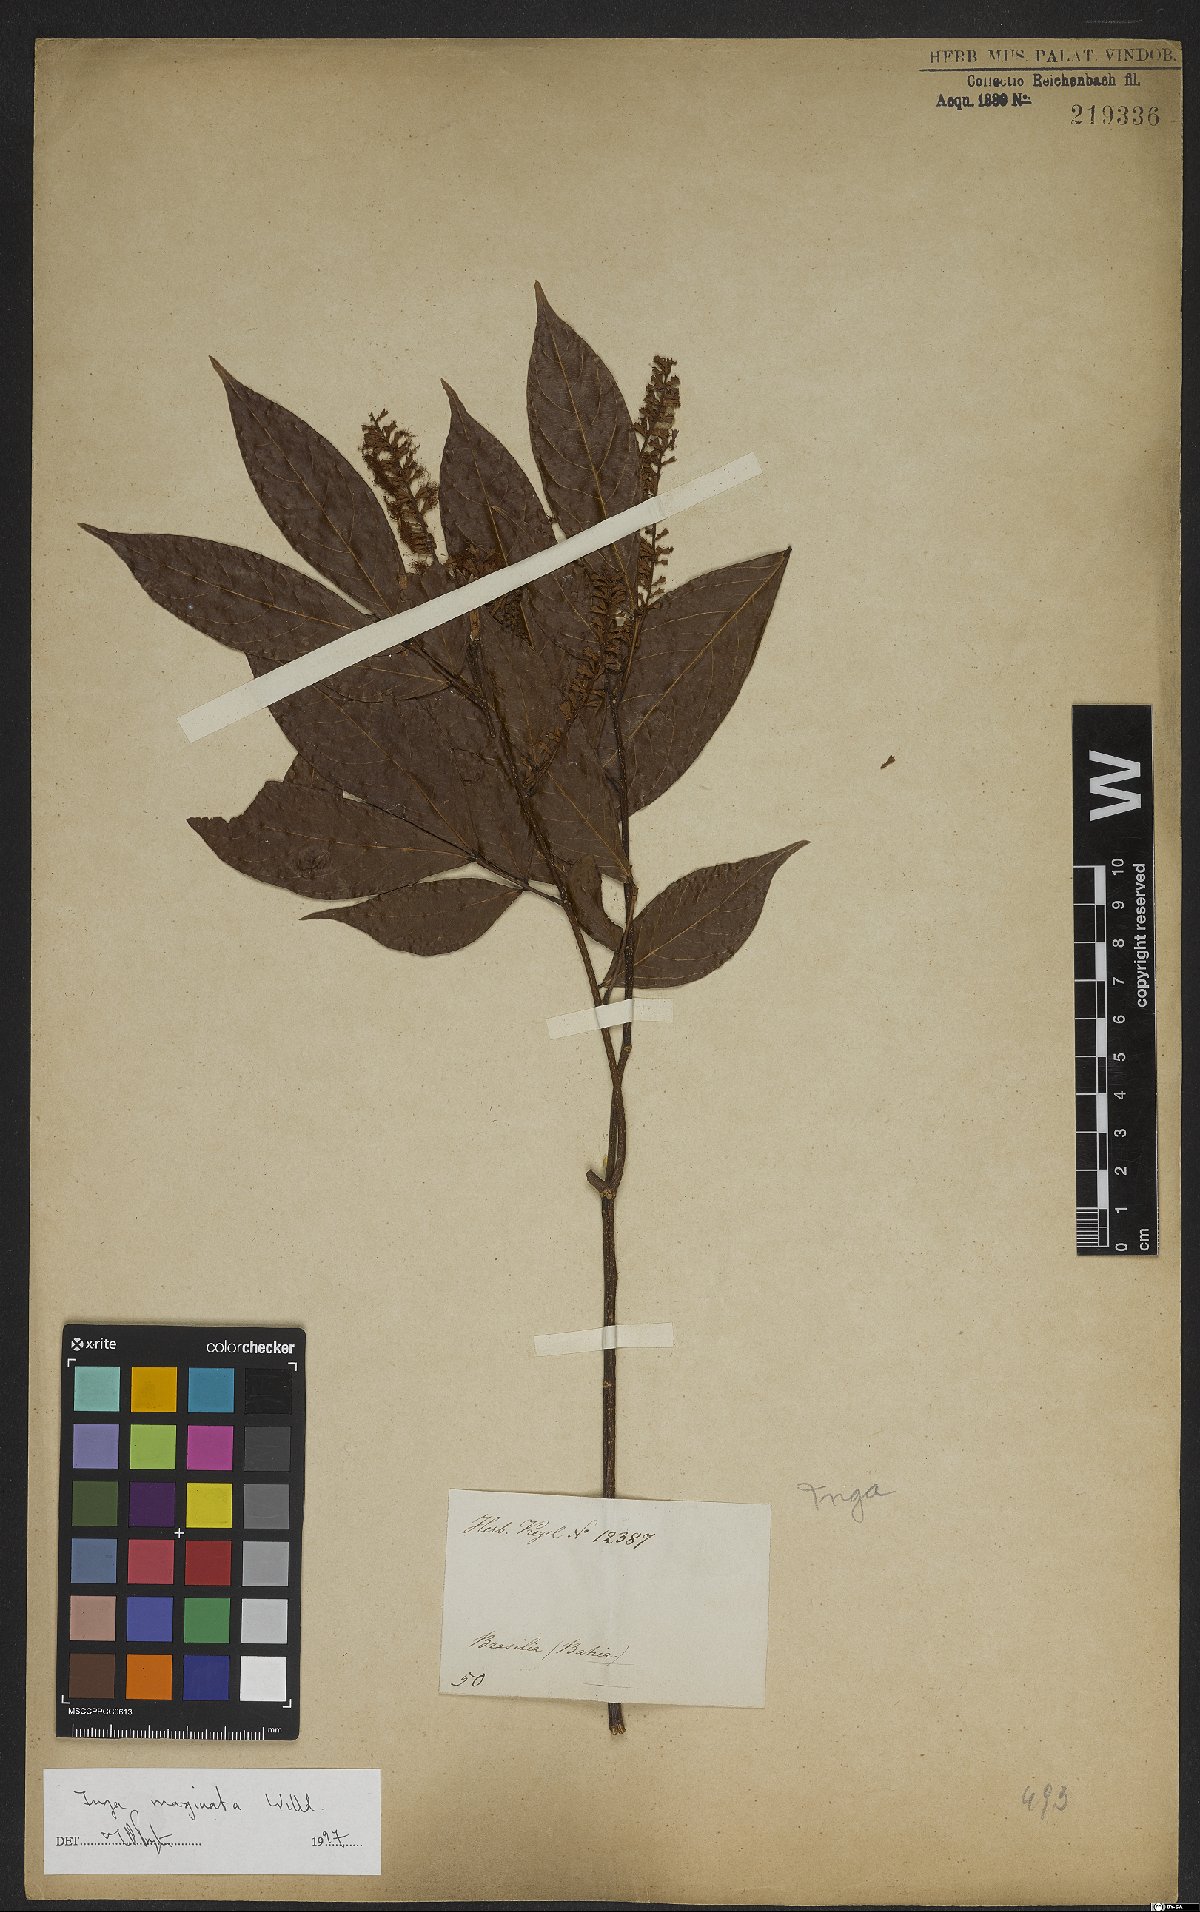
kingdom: Plantae
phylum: Tracheophyta
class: Magnoliopsida
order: Fabales
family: Fabaceae
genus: Inga
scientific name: Inga marginata
